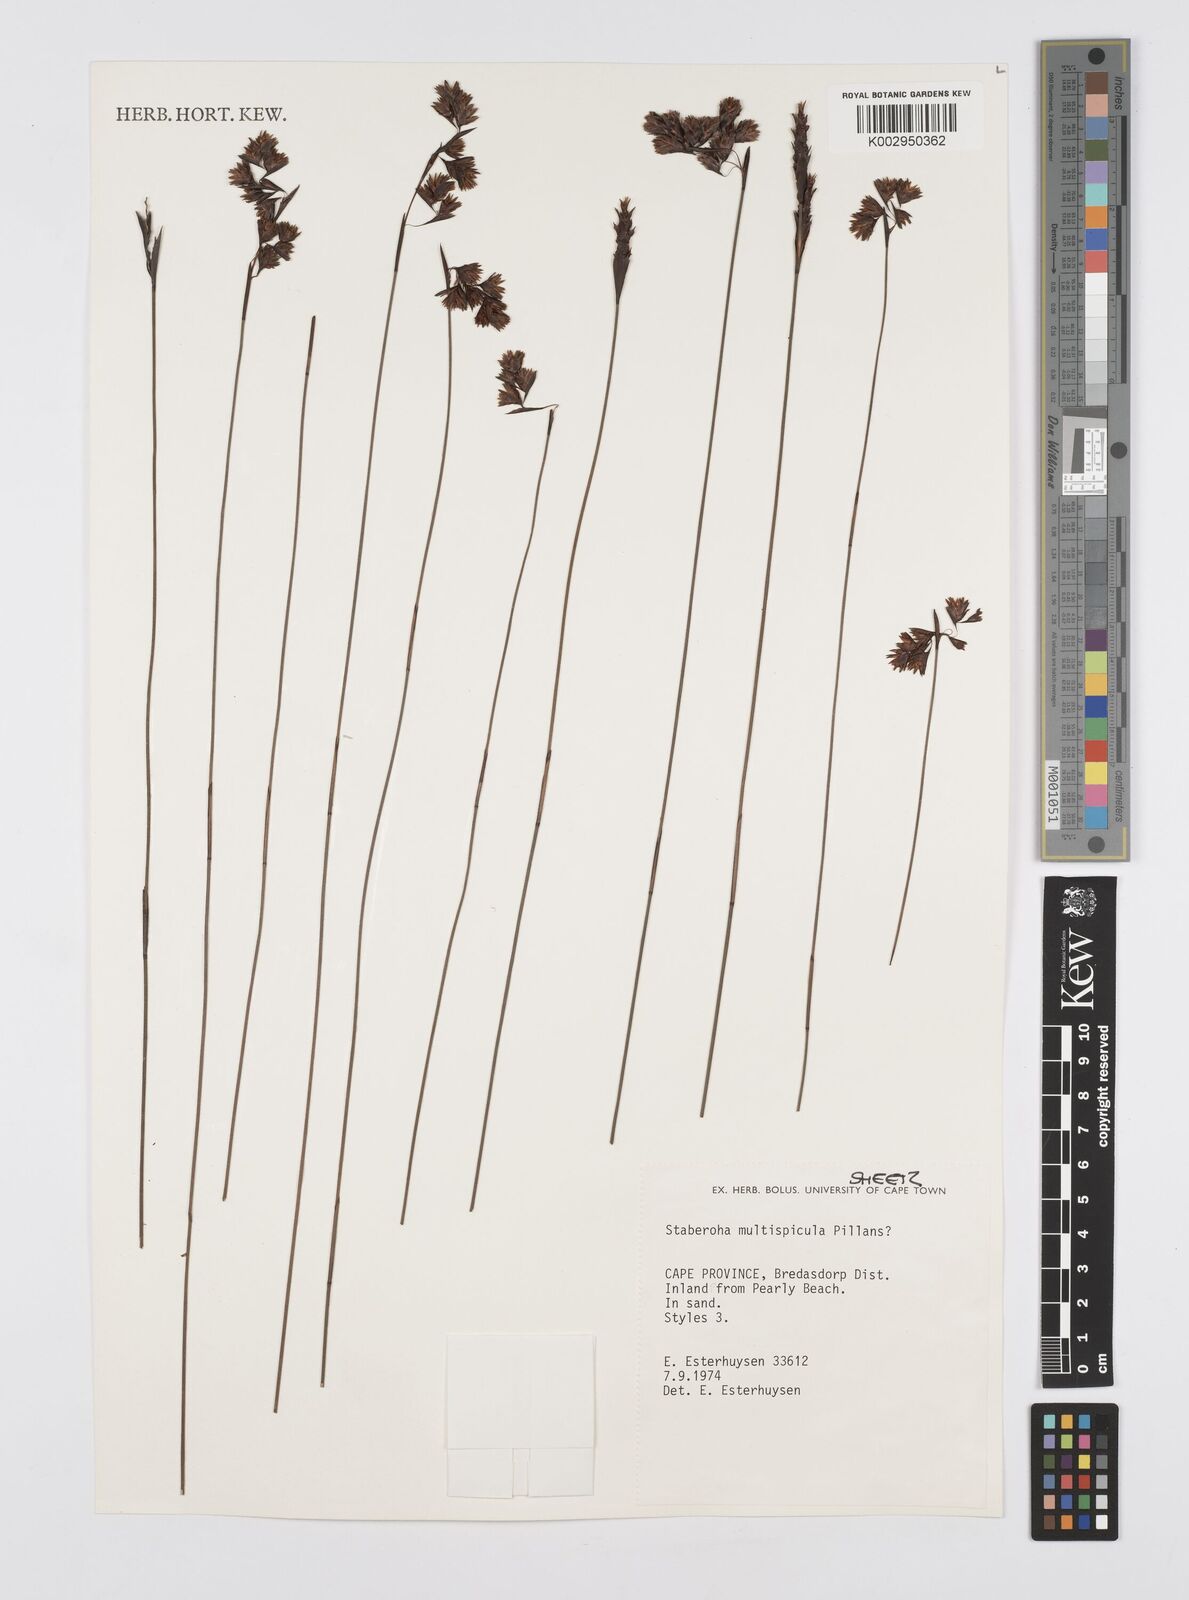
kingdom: Plantae
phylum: Tracheophyta
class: Liliopsida
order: Poales
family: Restionaceae
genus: Staberoha
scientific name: Staberoha multispicula
